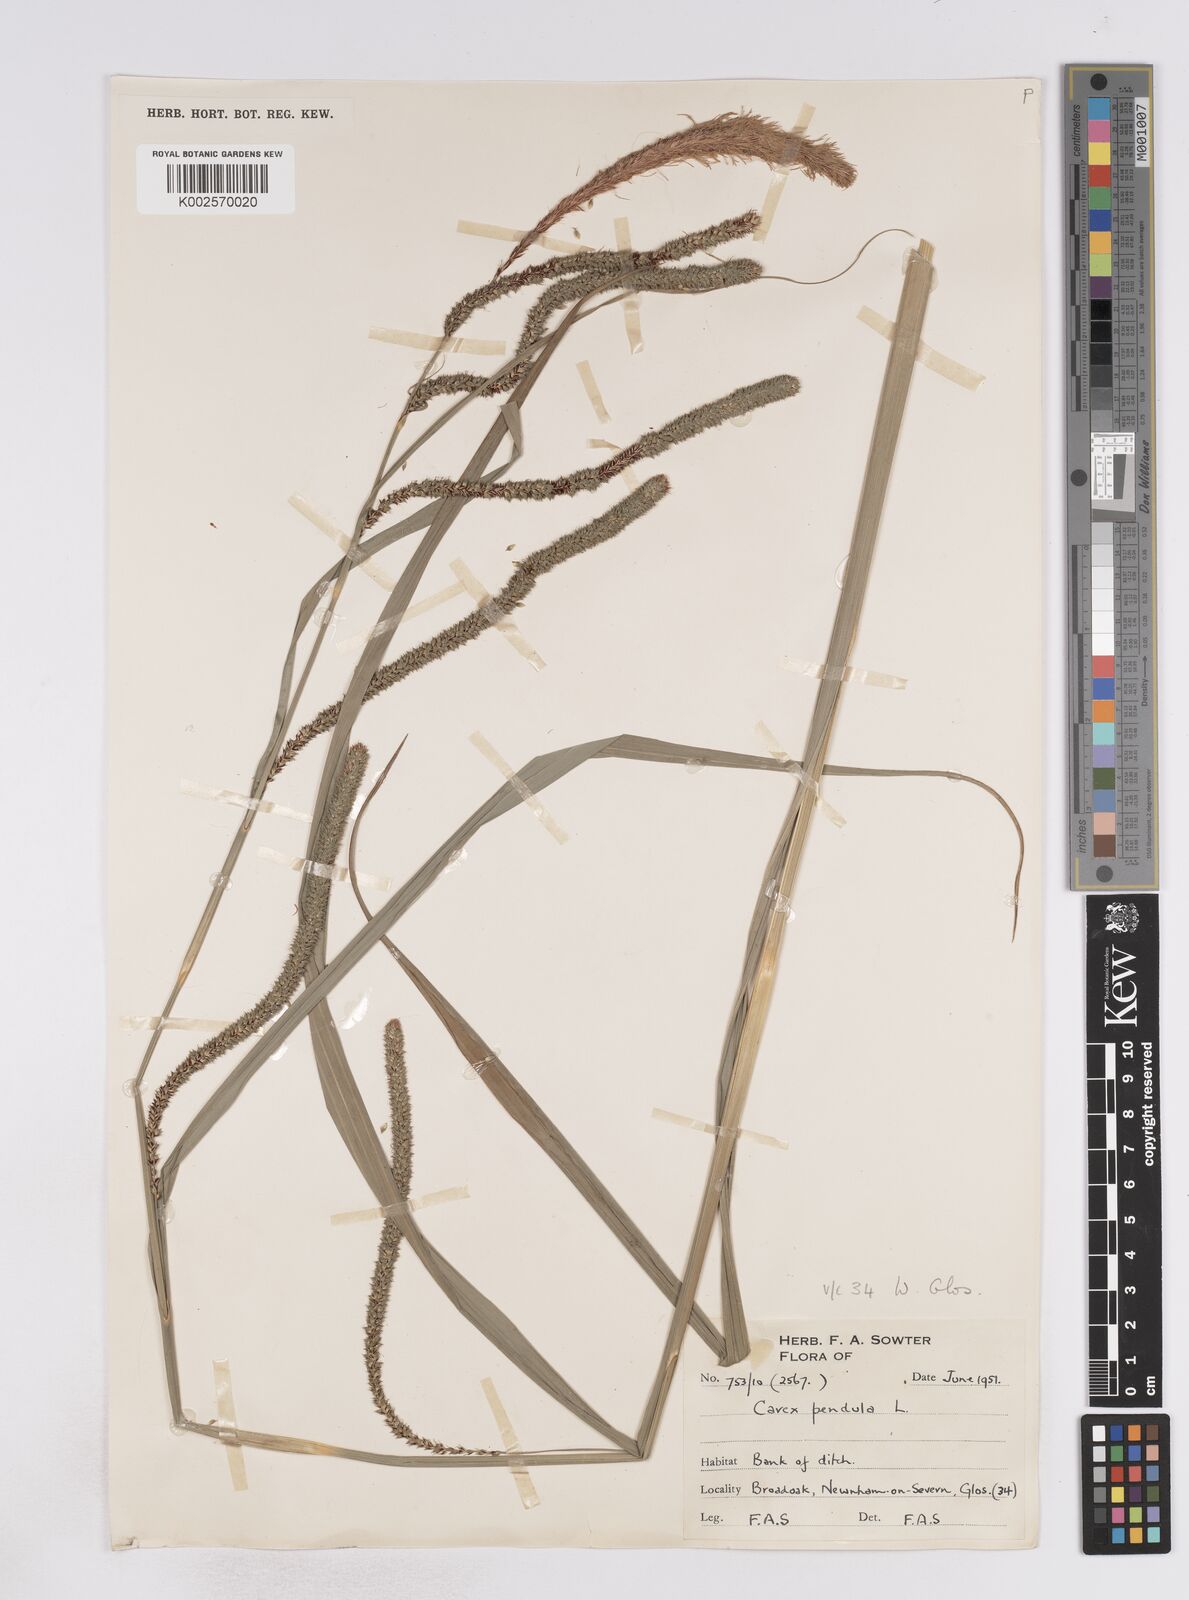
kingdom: Plantae
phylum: Tracheophyta
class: Liliopsida
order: Poales
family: Cyperaceae
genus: Carex
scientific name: Carex pendula
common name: Pendulous sedge
